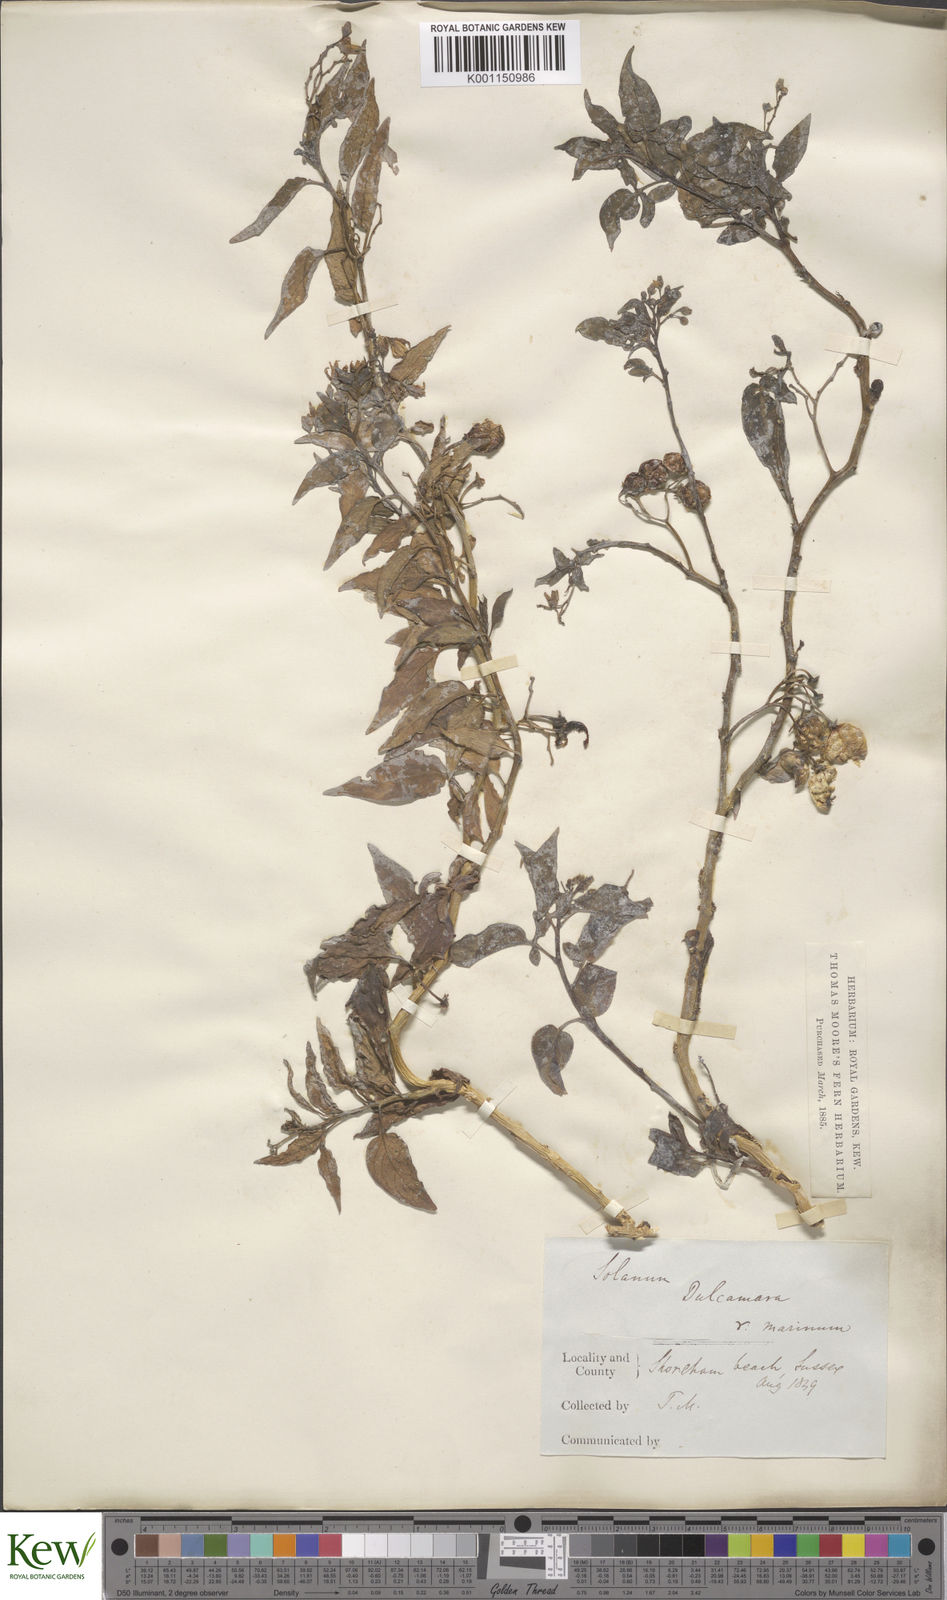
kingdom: Plantae
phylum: Tracheophyta
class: Magnoliopsida
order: Solanales
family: Solanaceae
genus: Solanum
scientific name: Solanum dulcamara
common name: Climbing nightshade
